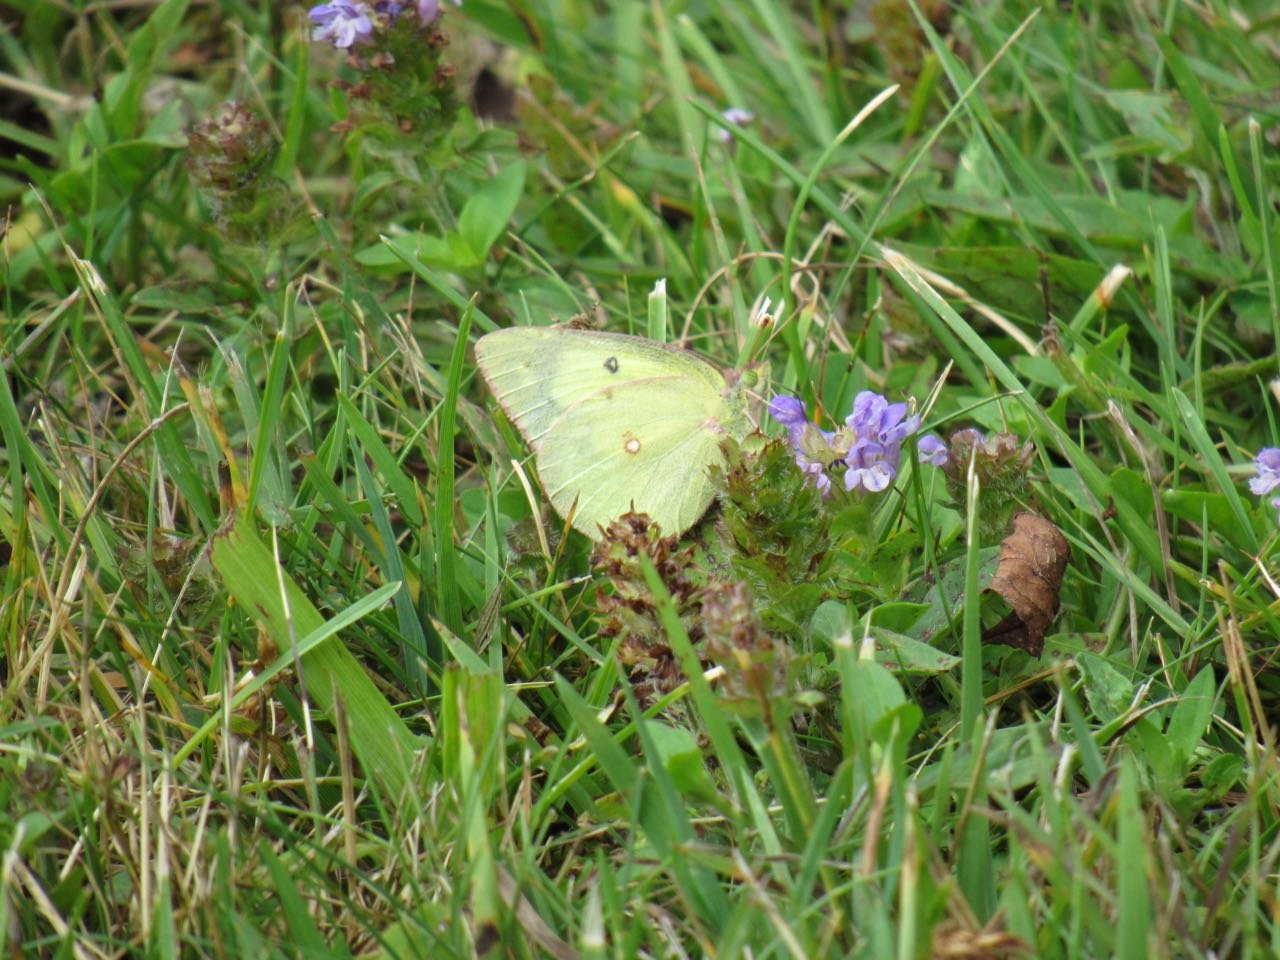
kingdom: Animalia
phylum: Arthropoda
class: Insecta
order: Lepidoptera
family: Pieridae
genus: Colias
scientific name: Colias philodice
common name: Clouded Sulphur
